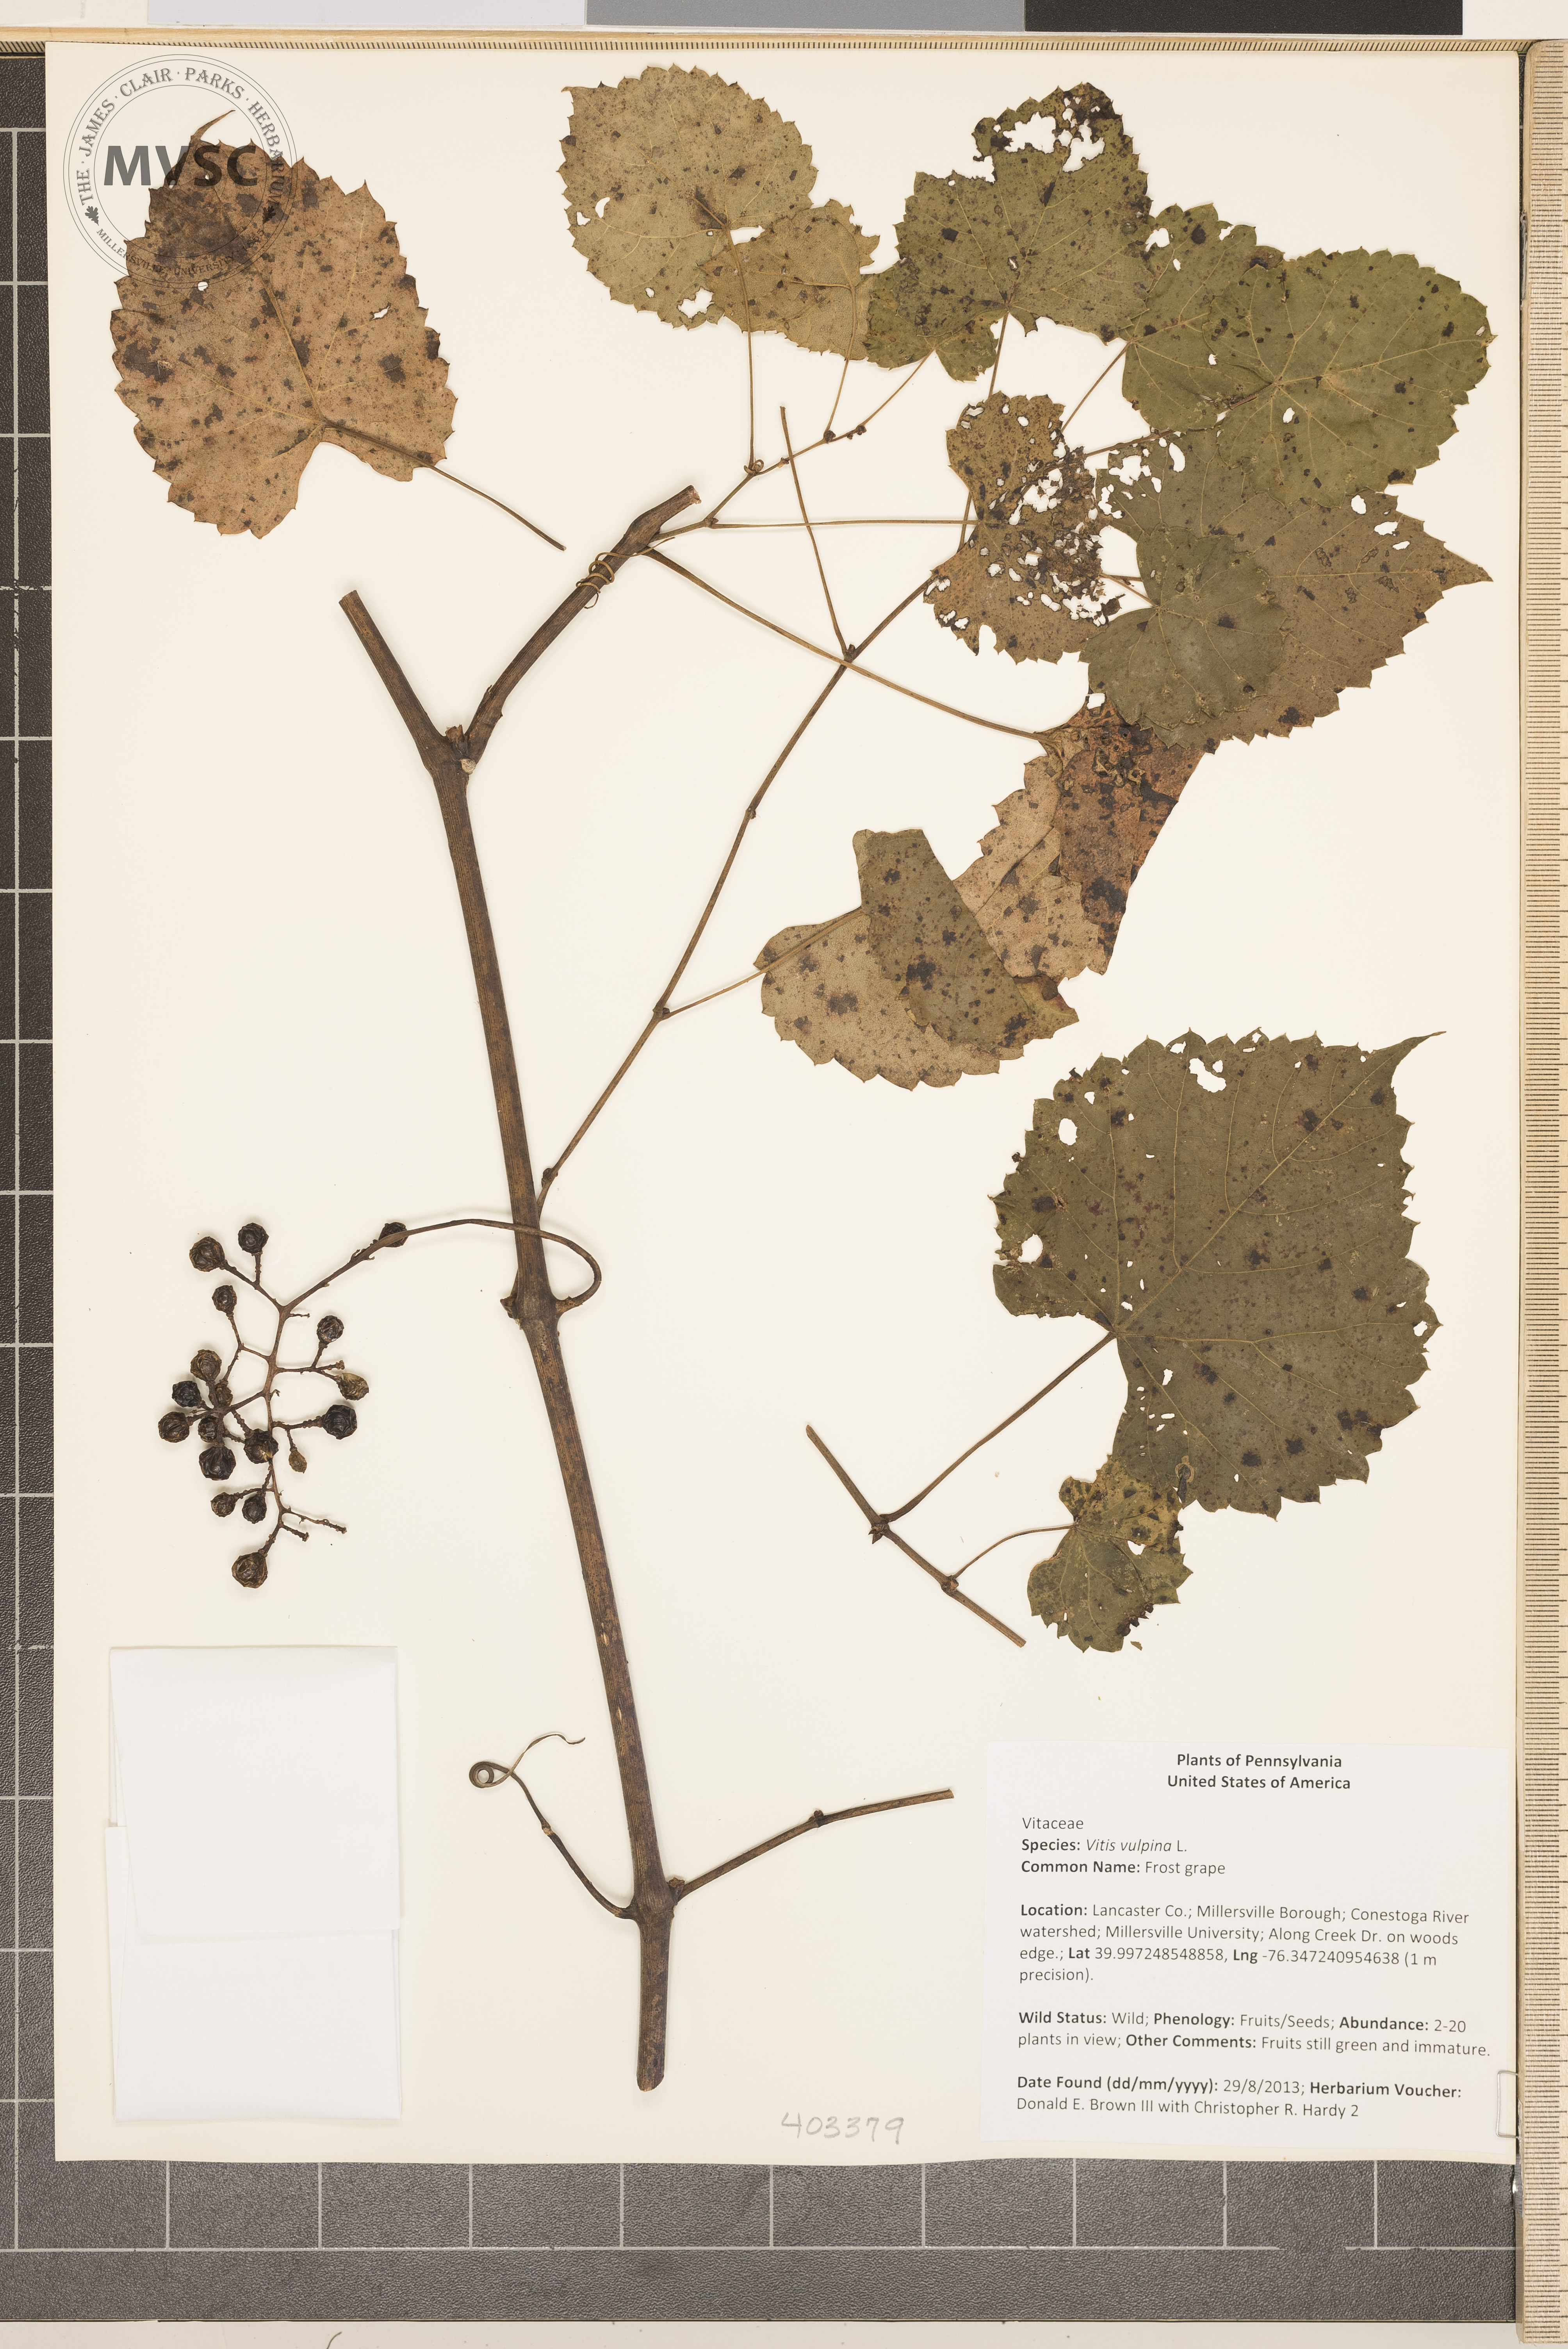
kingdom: Plantae
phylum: Tracheophyta
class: Magnoliopsida
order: Vitales
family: Vitaceae
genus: Vitis
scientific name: Vitis vulpina
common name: Frost grape
